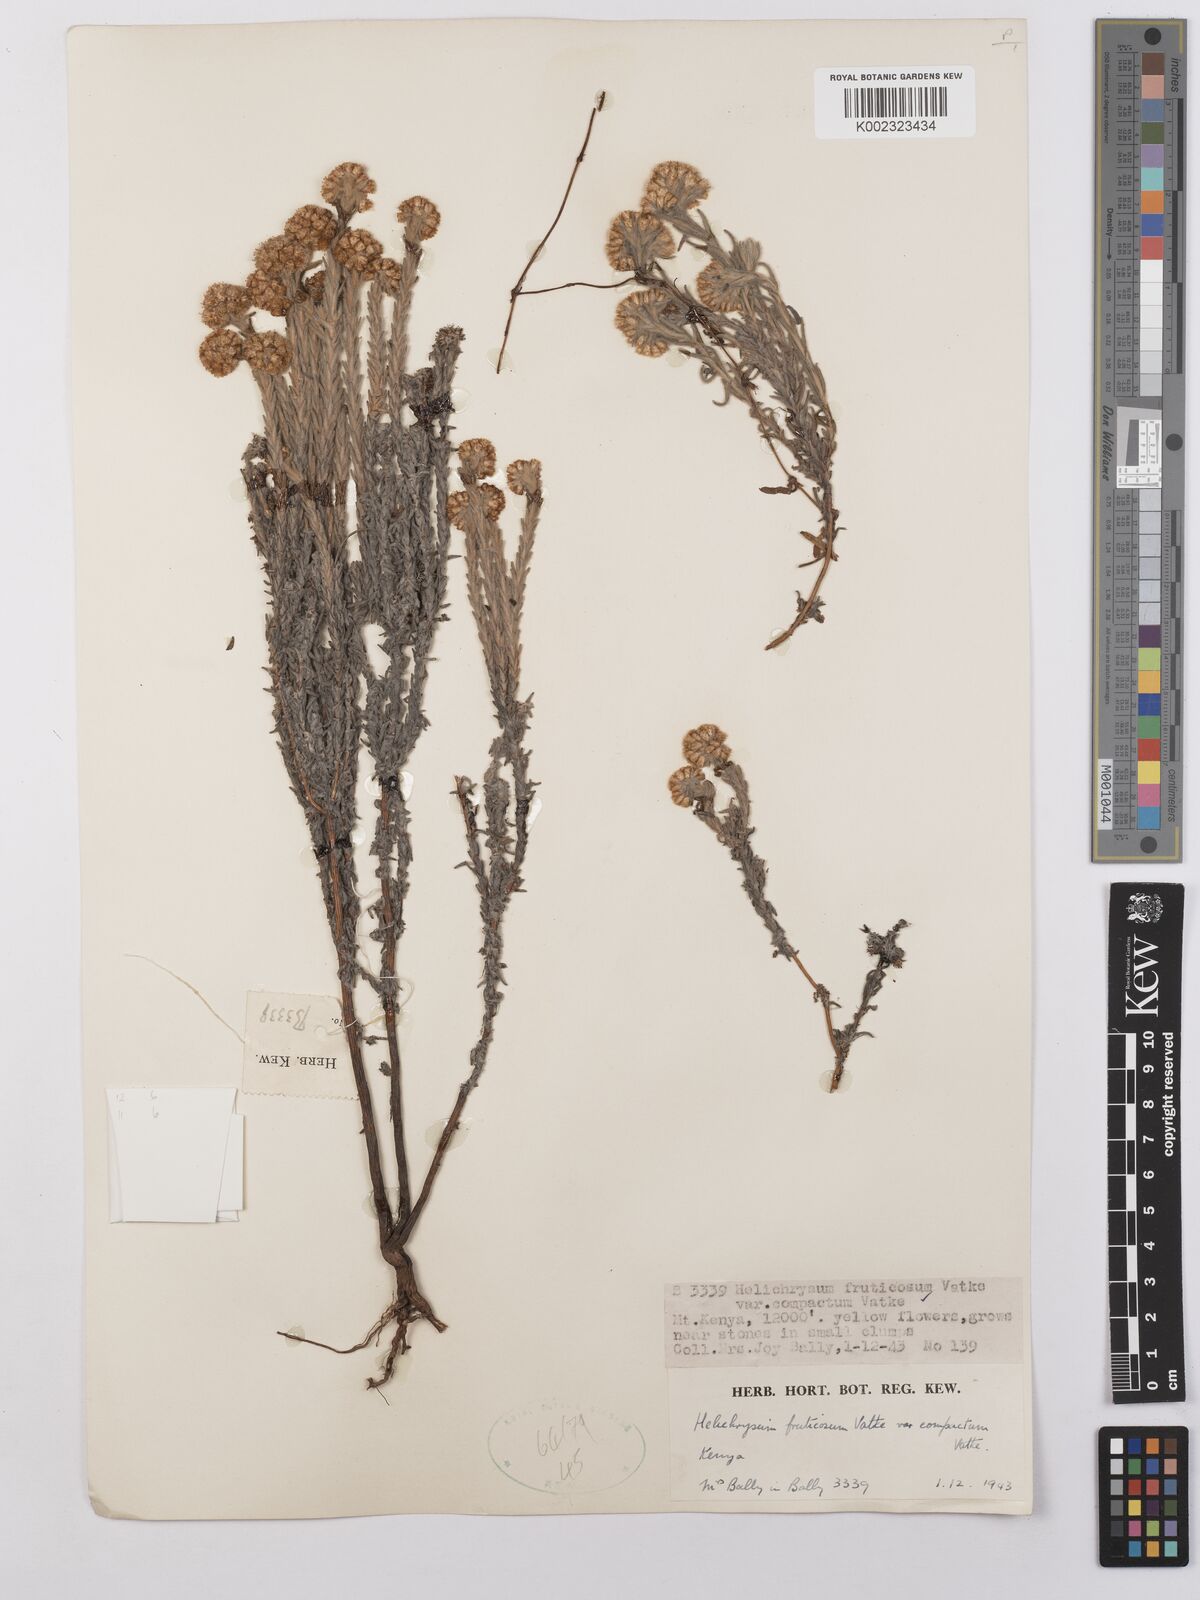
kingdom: Plantae
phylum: Tracheophyta
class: Magnoliopsida
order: Asterales
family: Asteraceae
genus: Helichrysum
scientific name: Helichrysum forskahlii
